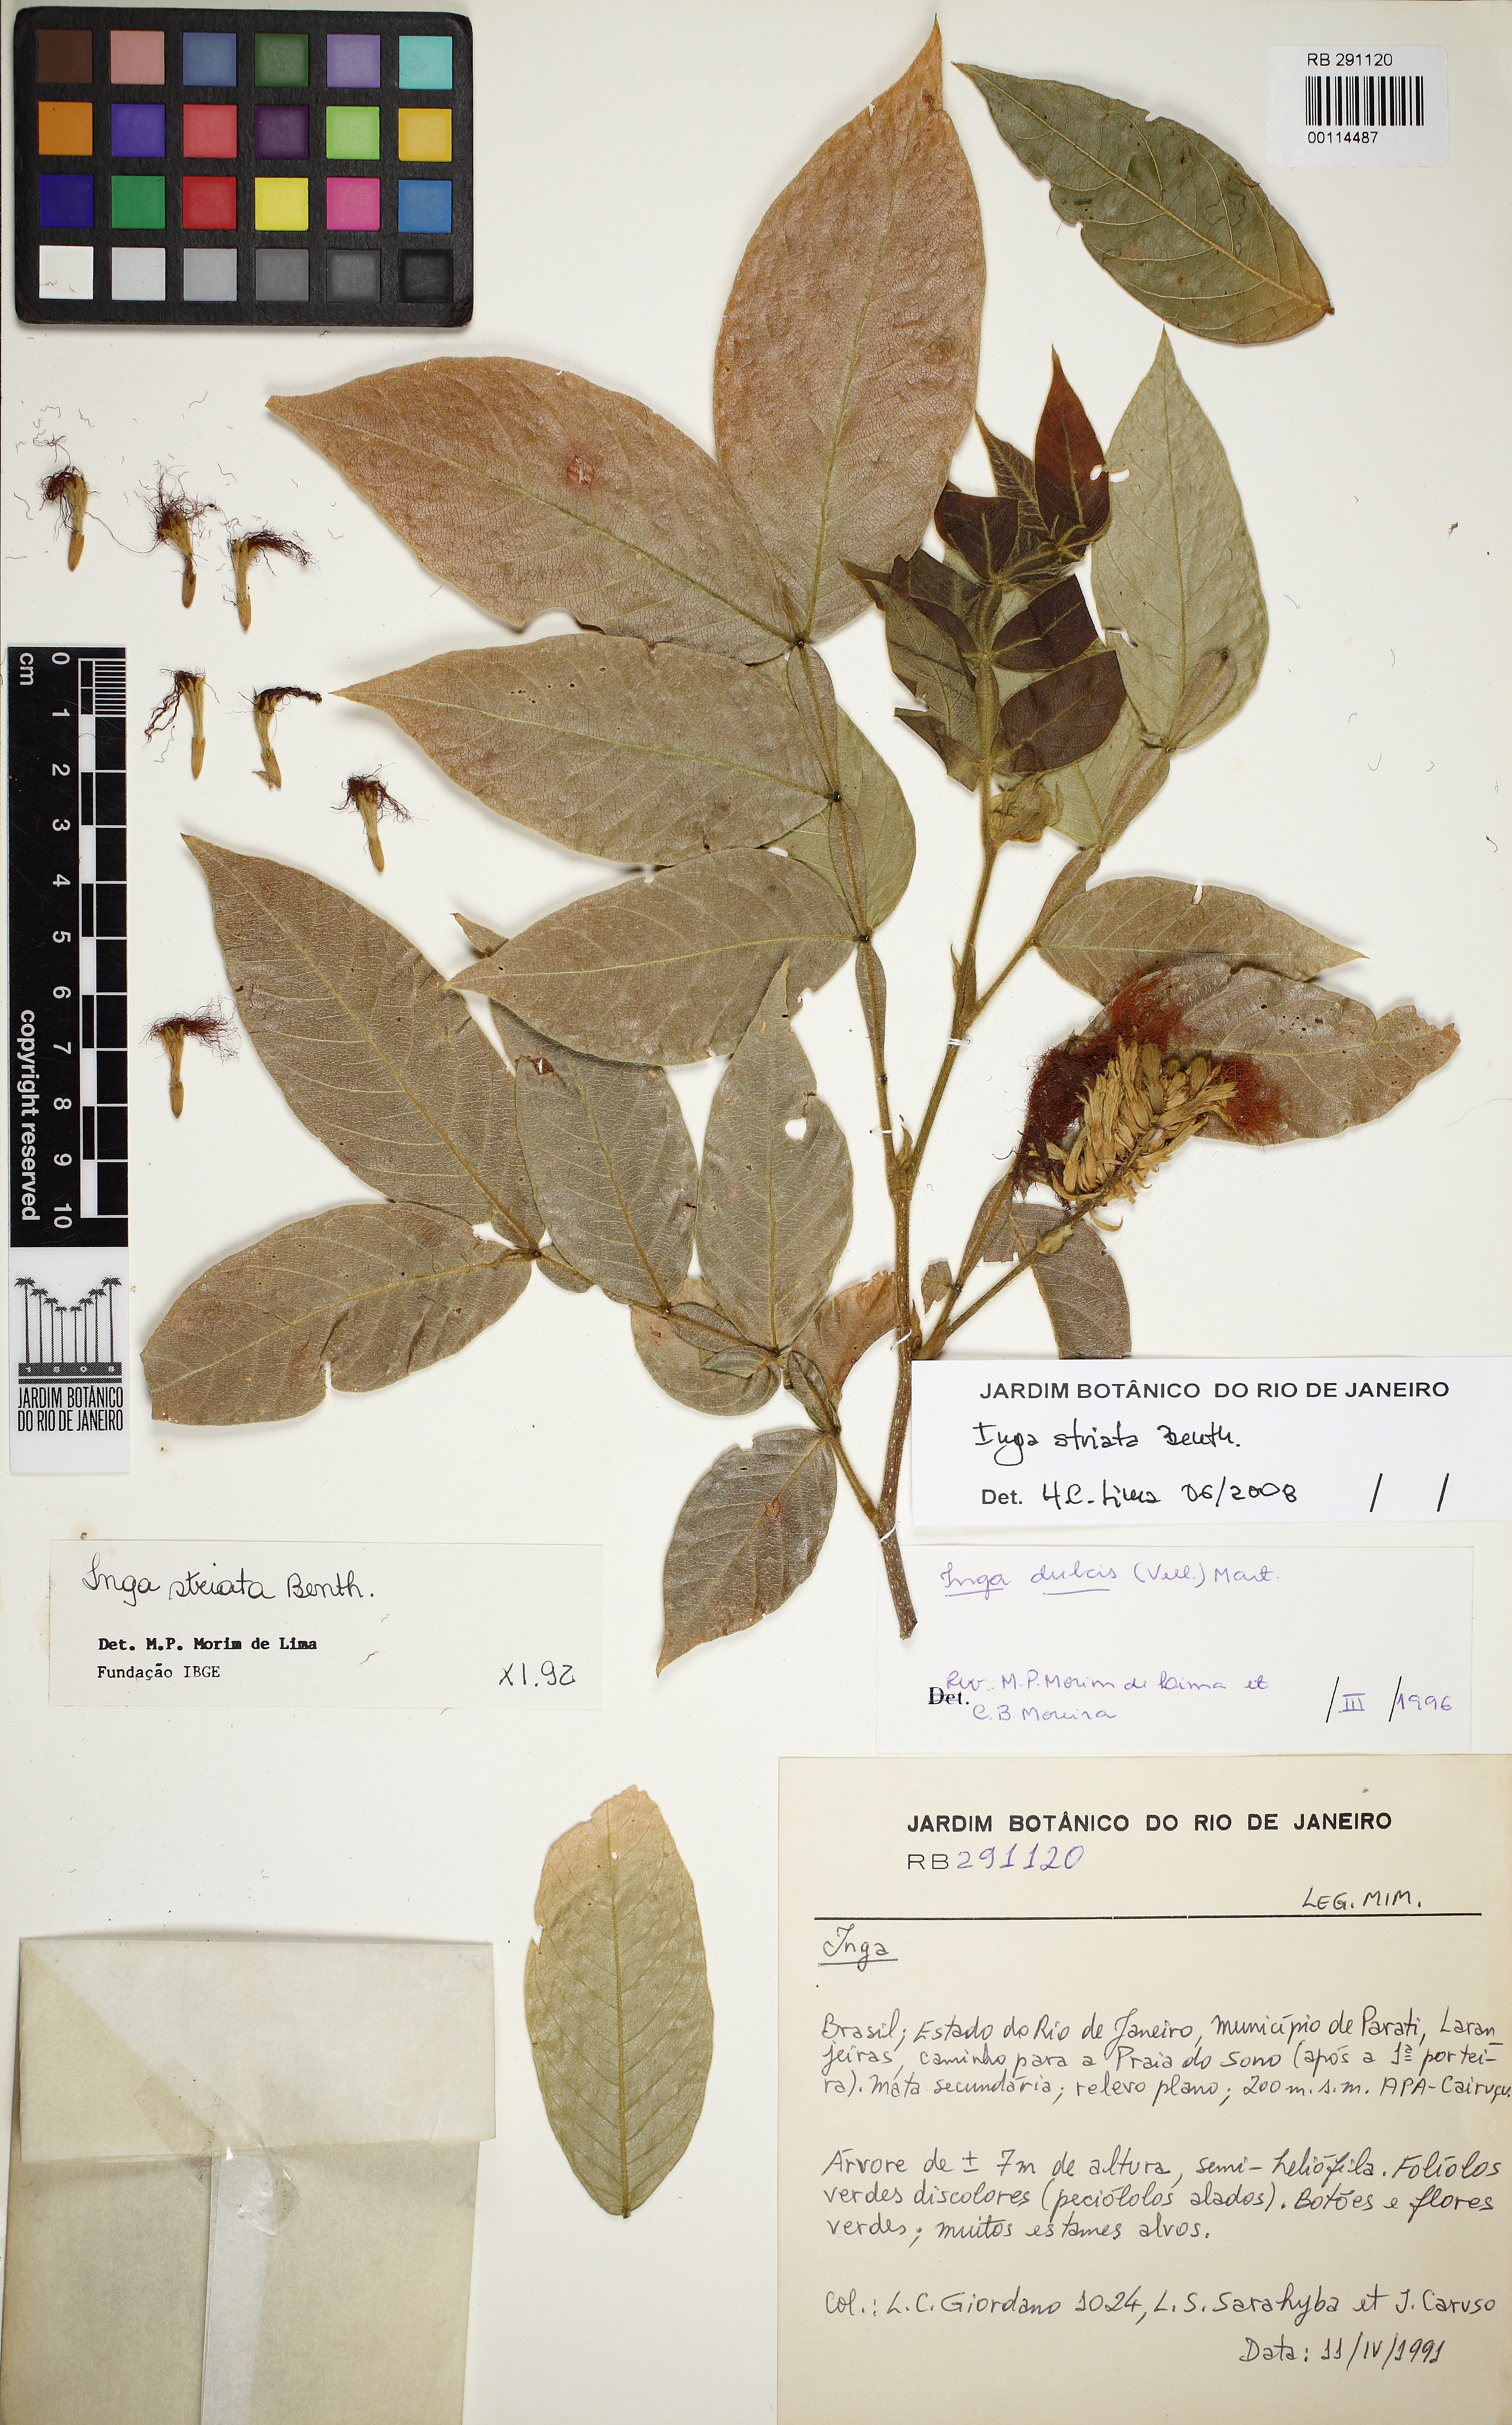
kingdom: Plantae
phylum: Tracheophyta
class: Magnoliopsida
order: Fabales
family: Fabaceae
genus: Inga
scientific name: Inga striata
